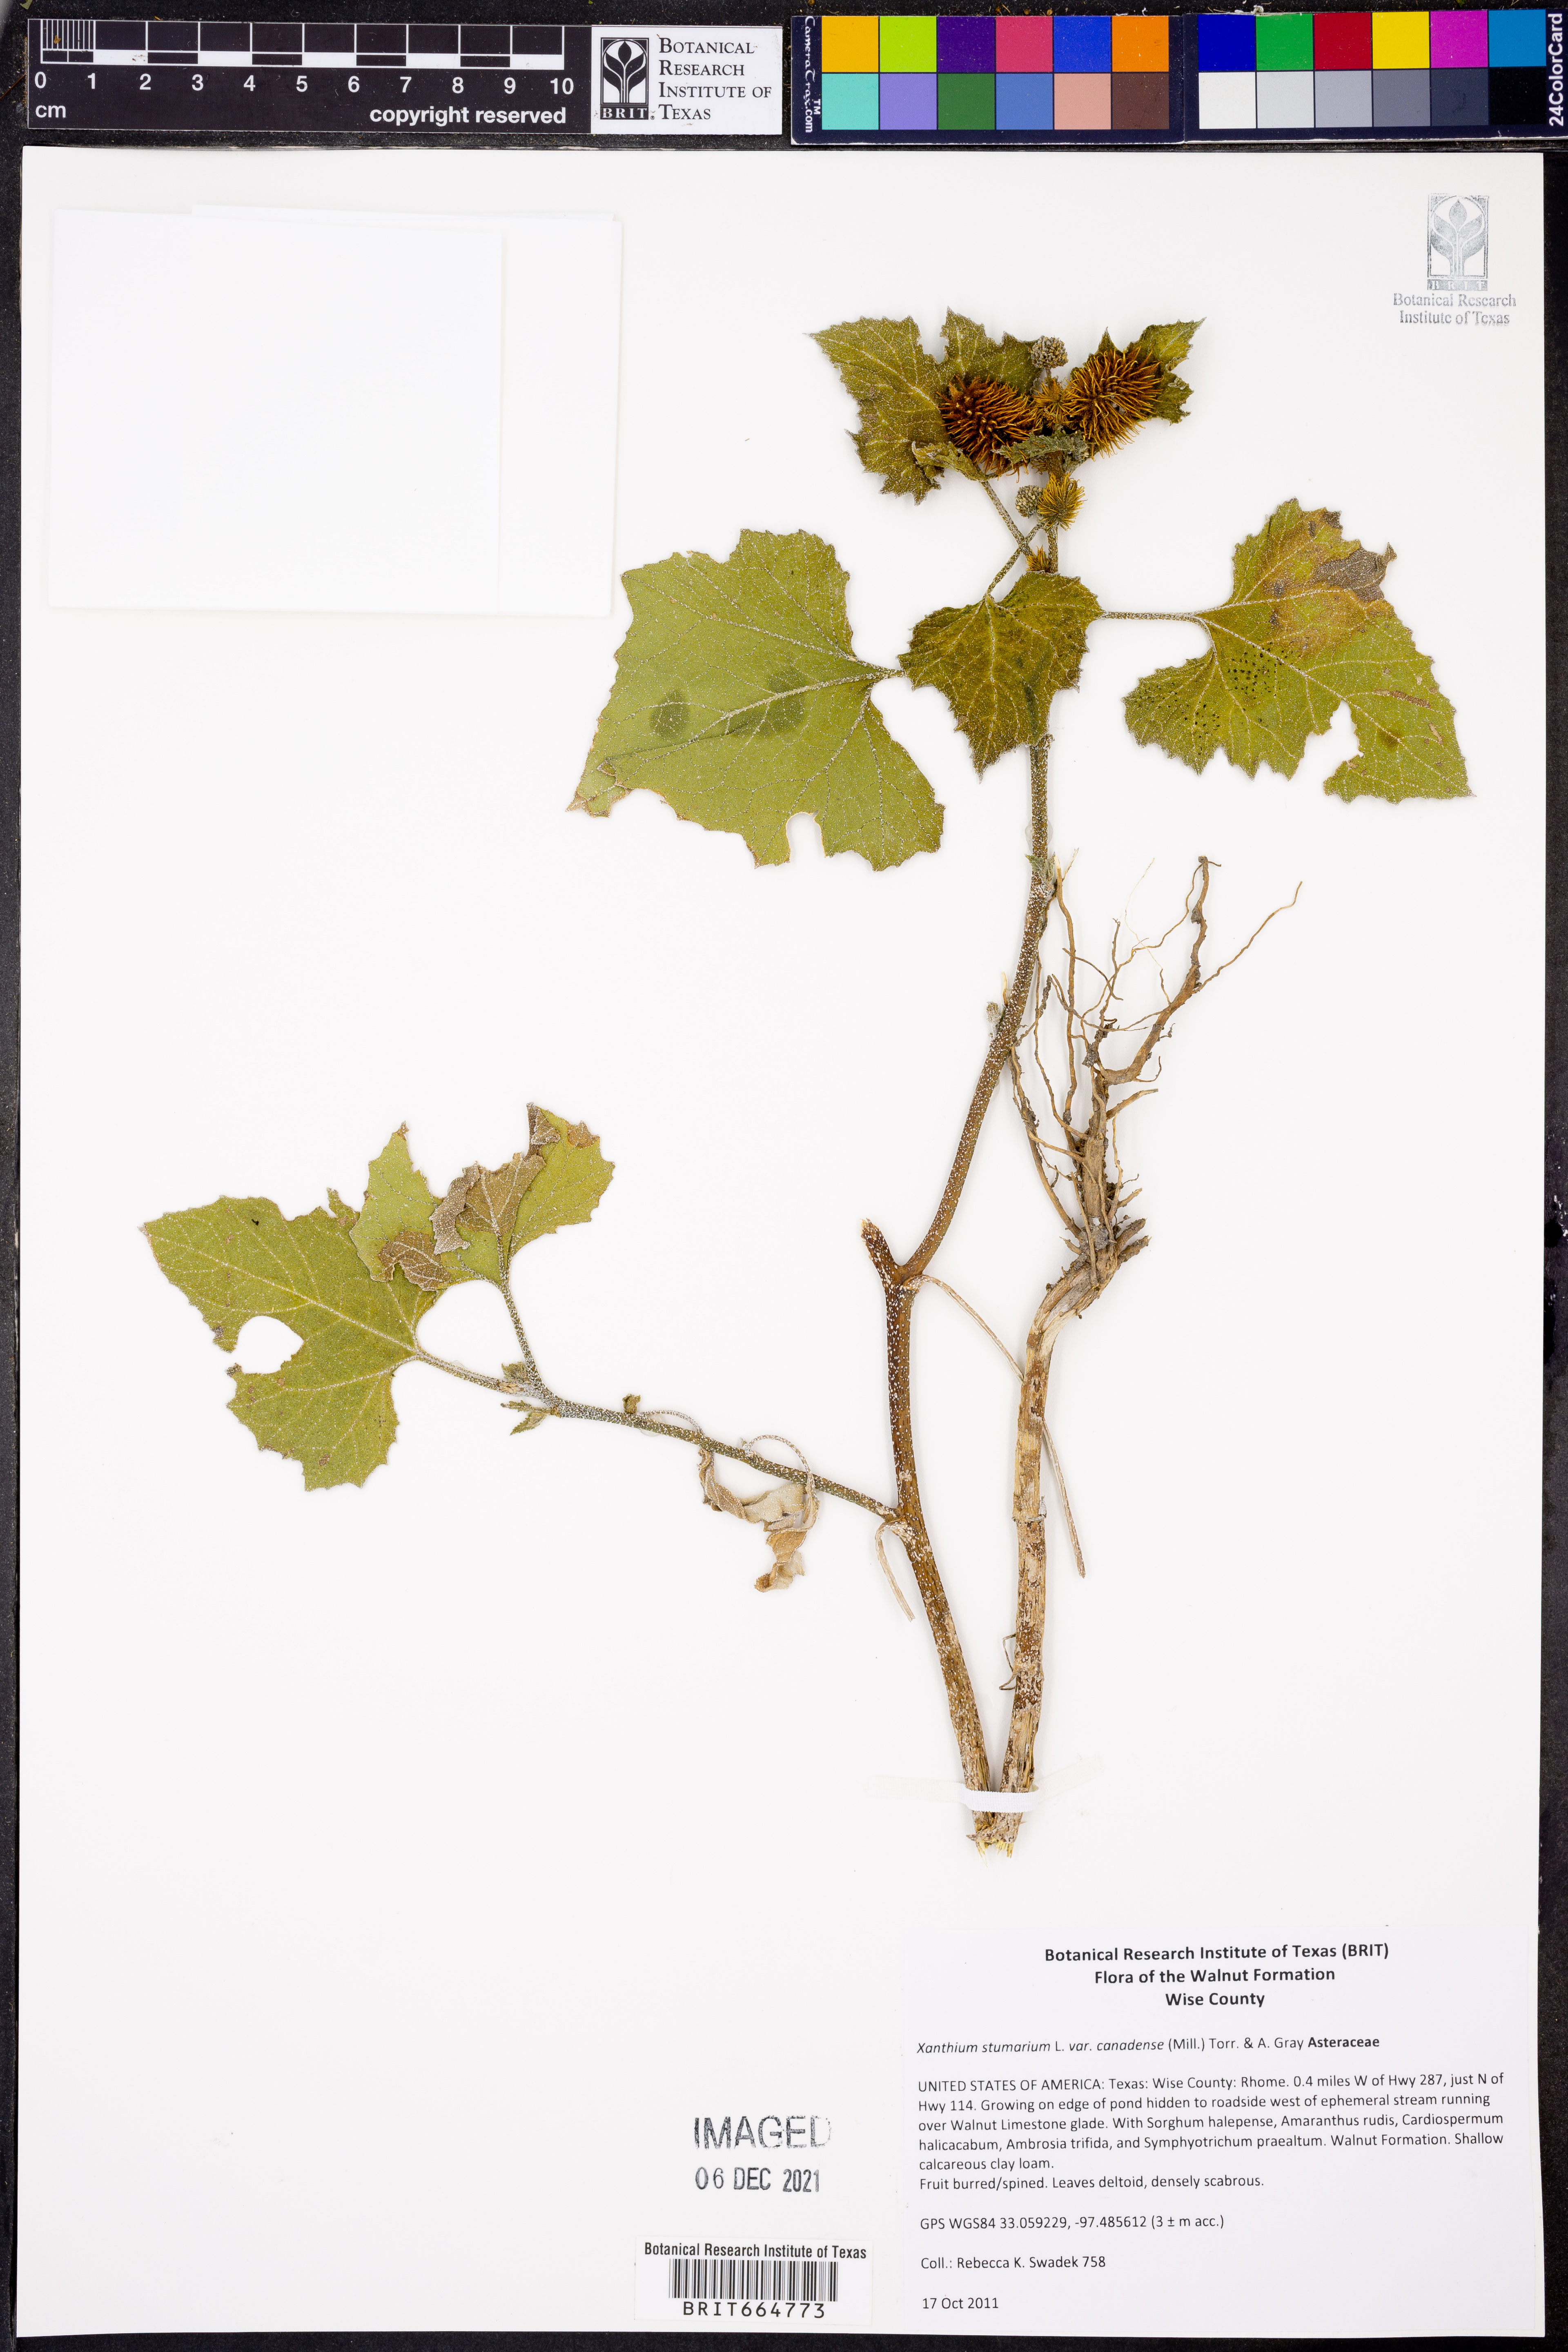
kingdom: Plantae
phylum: Tracheophyta
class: Magnoliopsida
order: Asterales
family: Asteraceae
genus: Xanthium
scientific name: Xanthium orientale
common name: Californian burr
